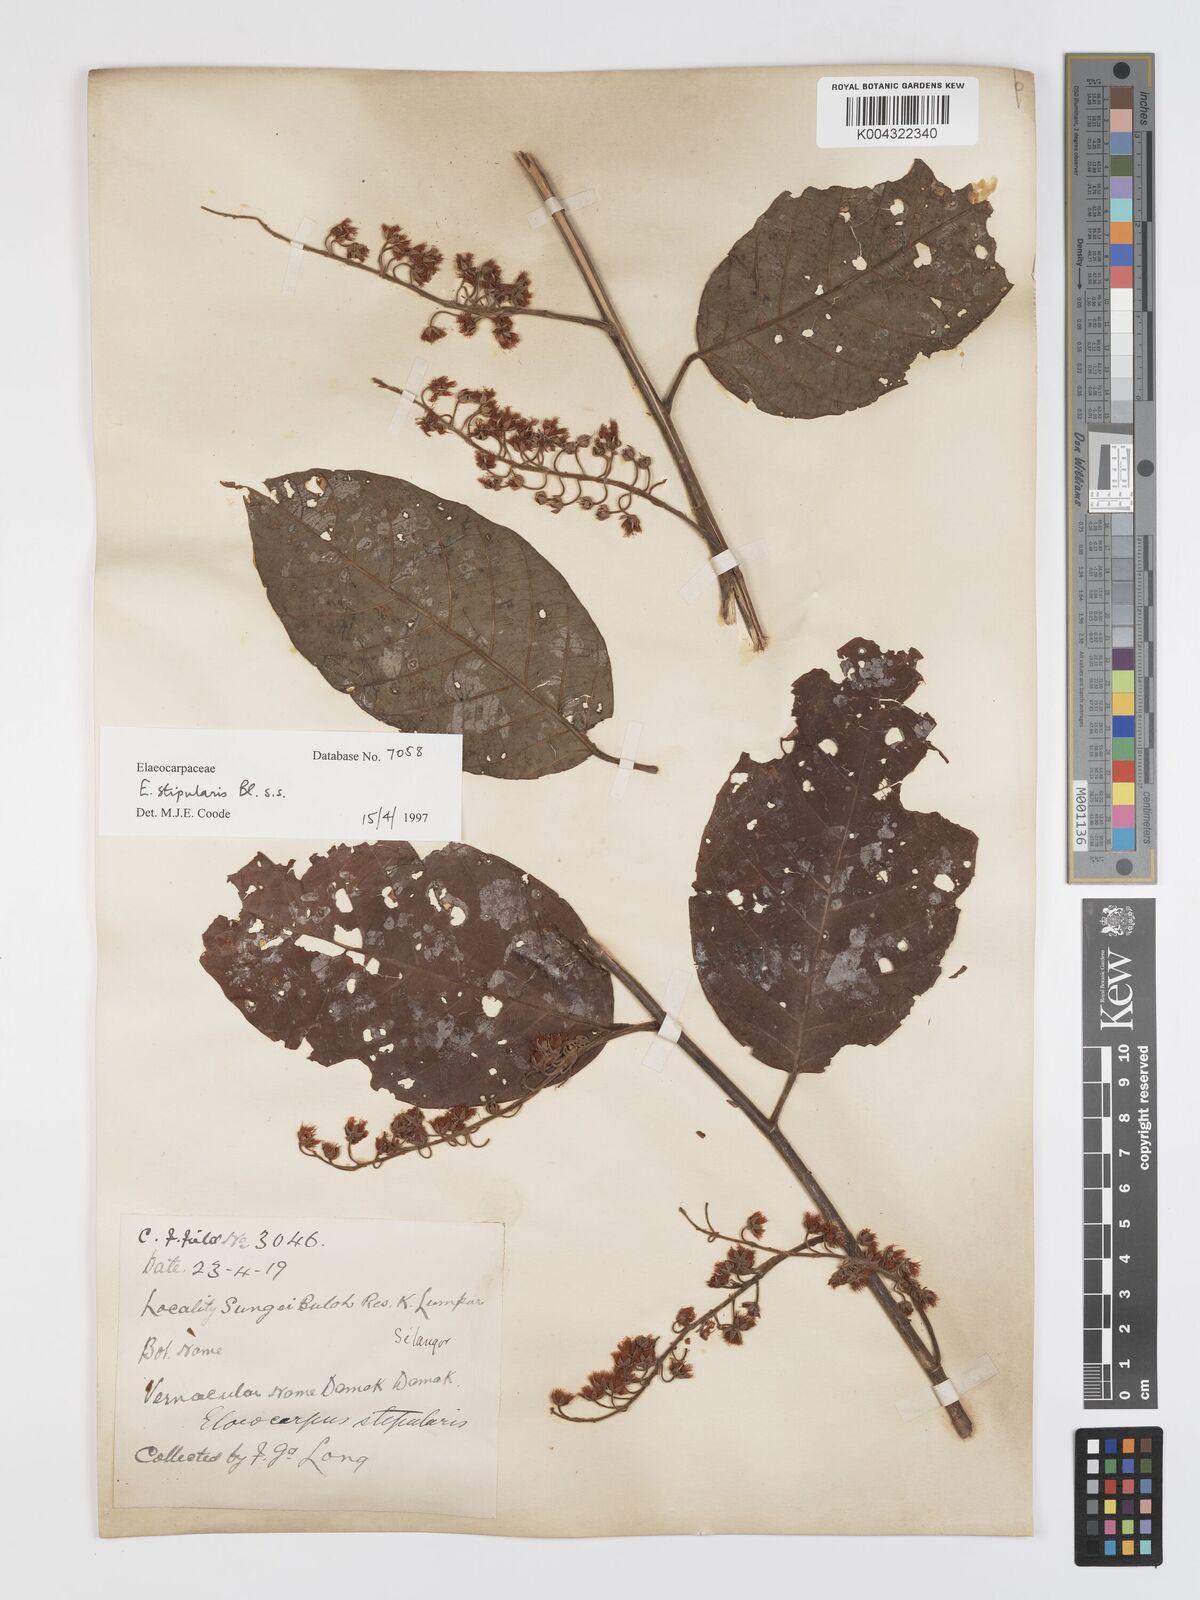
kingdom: Plantae
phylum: Tracheophyta
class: Magnoliopsida
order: Oxalidales
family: Elaeocarpaceae
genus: Elaeocarpus
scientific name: Elaeocarpus stipularis
